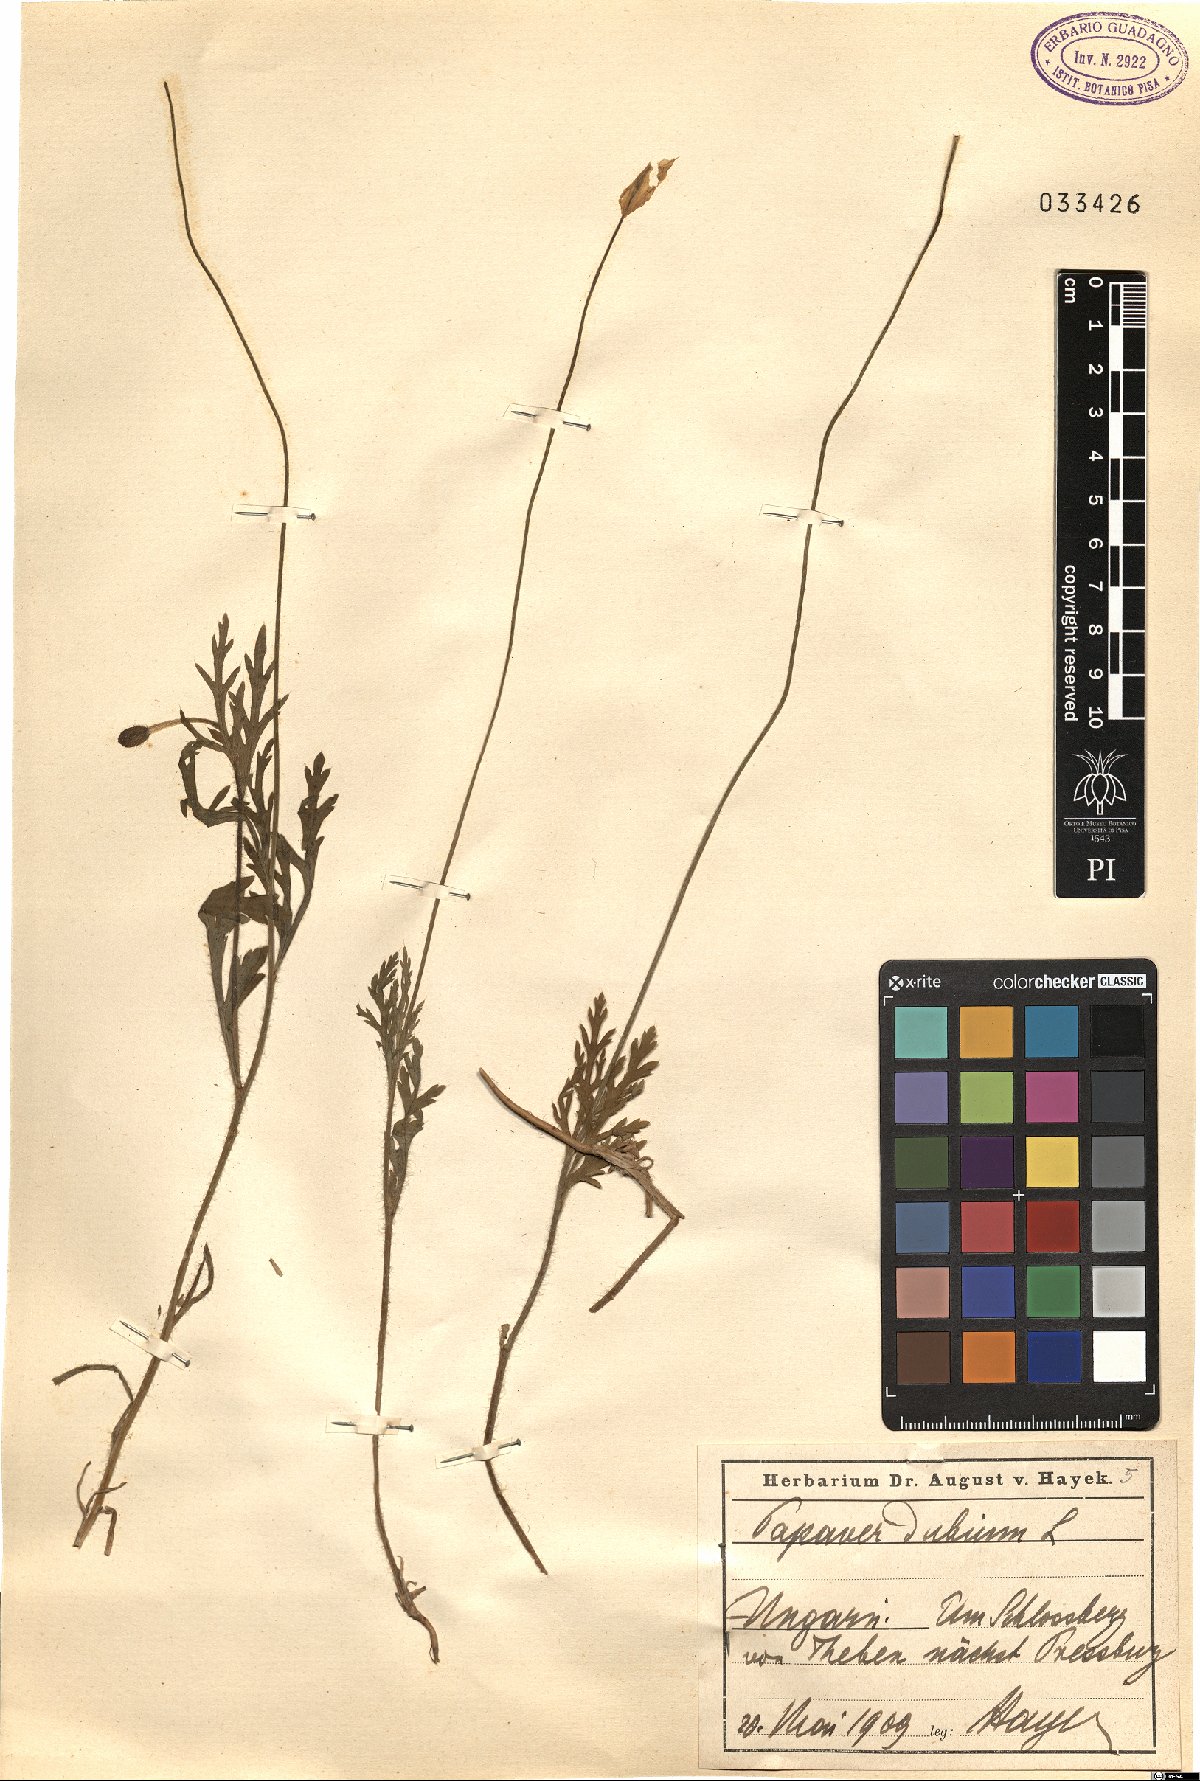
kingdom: Plantae
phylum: Tracheophyta
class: Magnoliopsida
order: Ranunculales
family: Papaveraceae
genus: Papaver
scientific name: Papaver dubium
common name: Long-headed poppy
